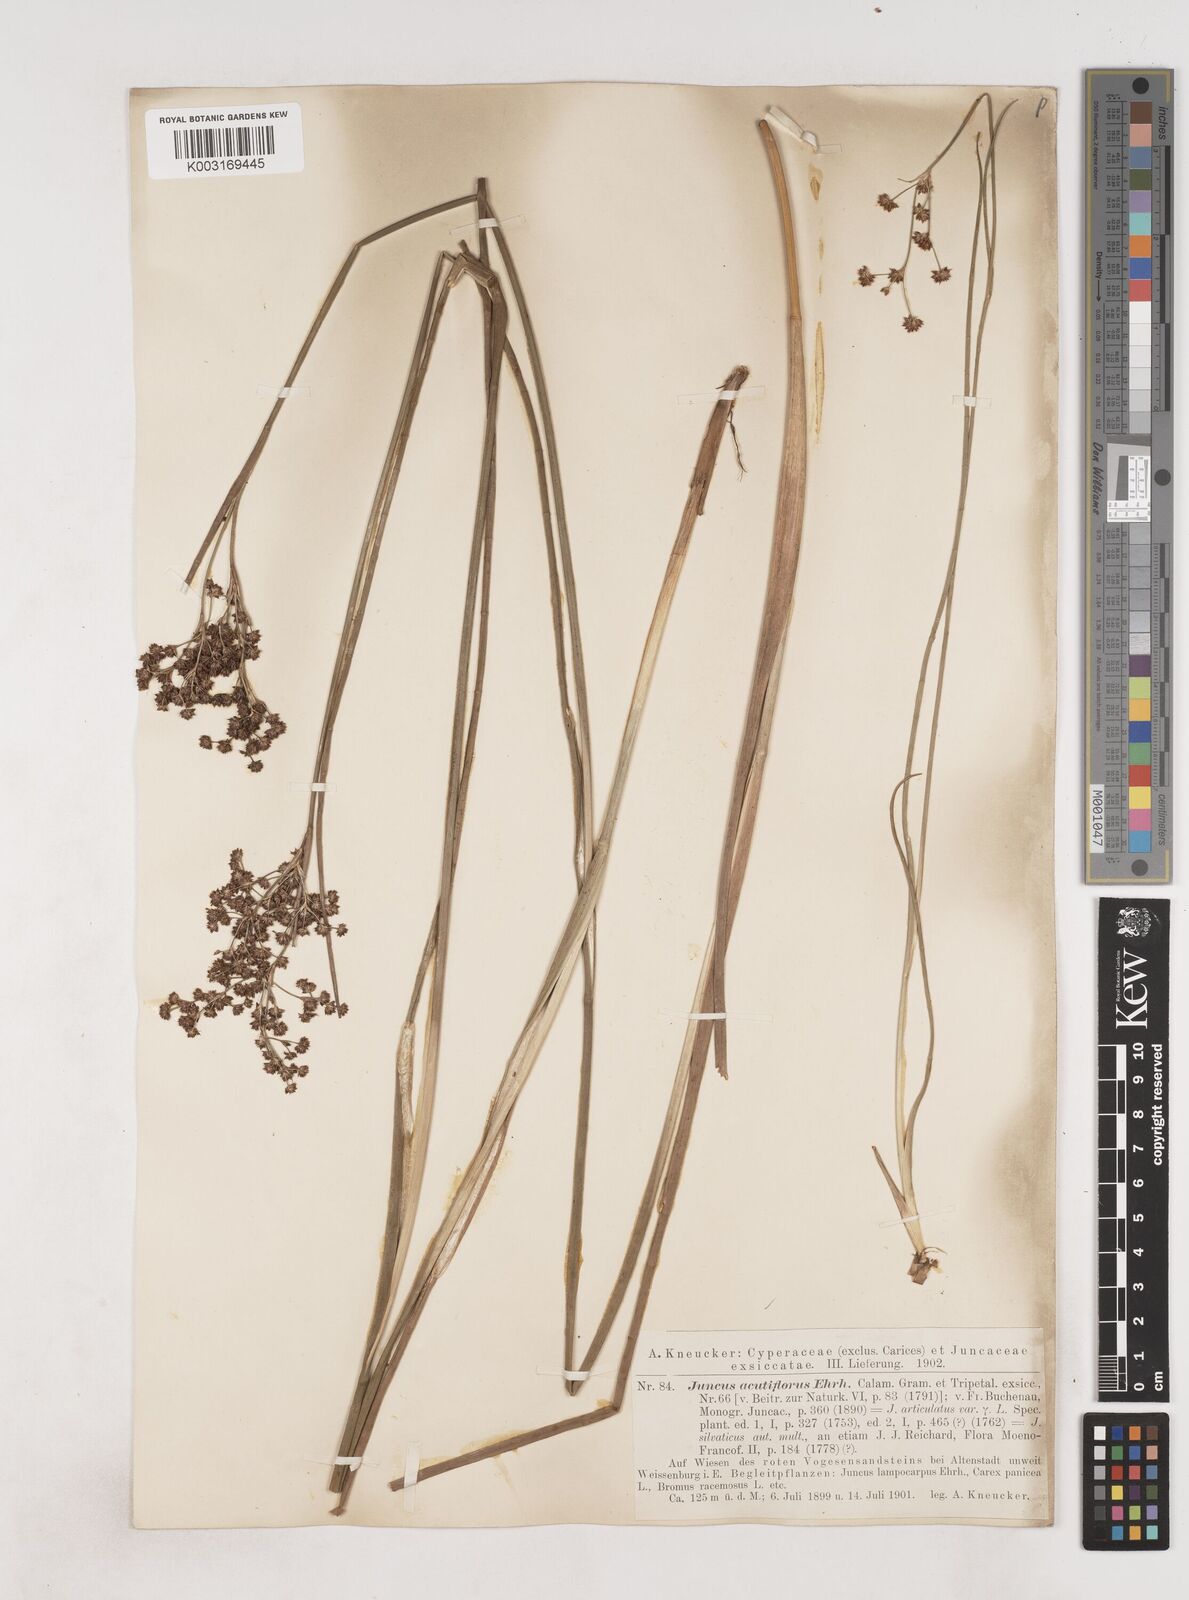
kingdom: Plantae
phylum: Tracheophyta
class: Liliopsida
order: Poales
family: Juncaceae
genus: Juncus
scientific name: Juncus acutiflorus
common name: Sharp-flowered rush
